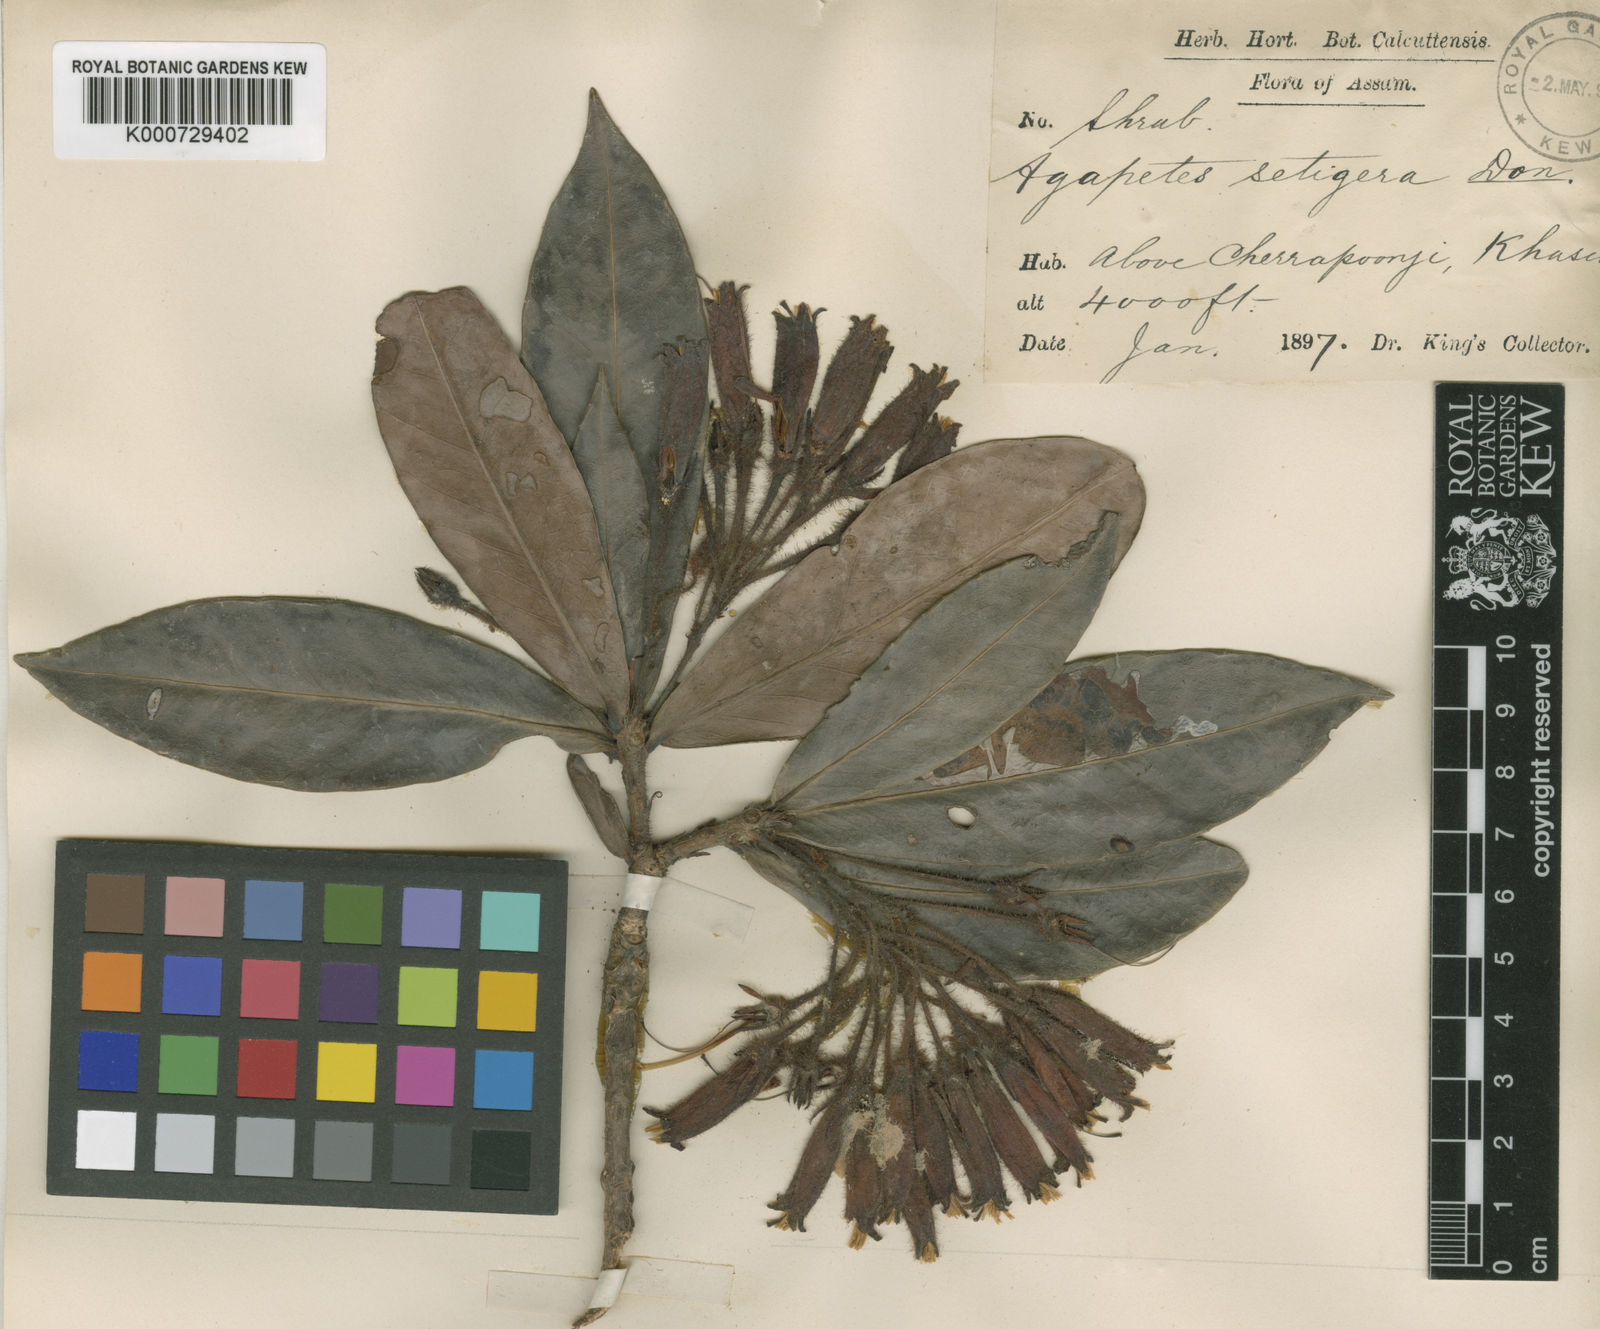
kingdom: Plantae
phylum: Tracheophyta
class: Magnoliopsida
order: Ericales
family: Ericaceae
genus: Agapetes
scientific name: Agapetes setigera
